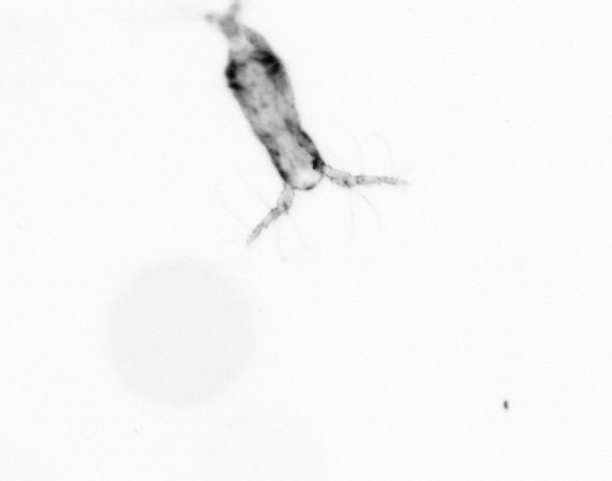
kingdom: Animalia
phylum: Arthropoda
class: Copepoda
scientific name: Copepoda
